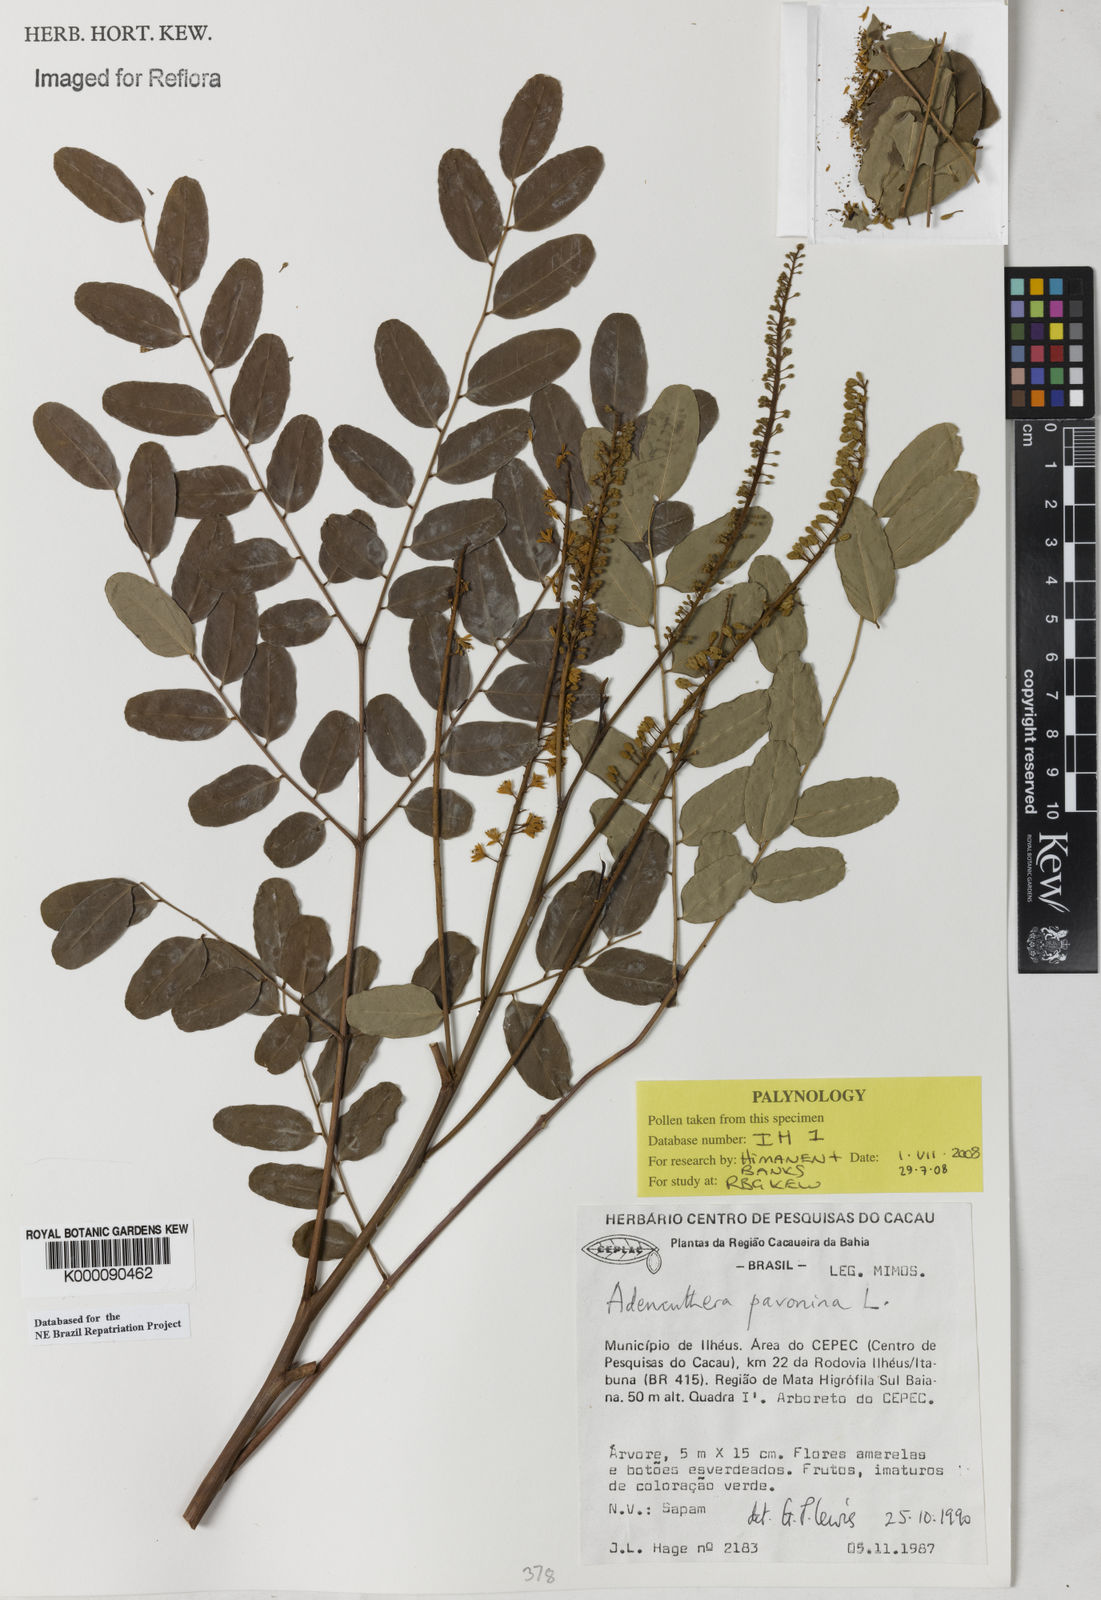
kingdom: Plantae
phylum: Tracheophyta
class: Magnoliopsida
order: Fabales
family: Fabaceae
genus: Adenanthera
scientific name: Adenanthera pavonina
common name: Red beadtree
